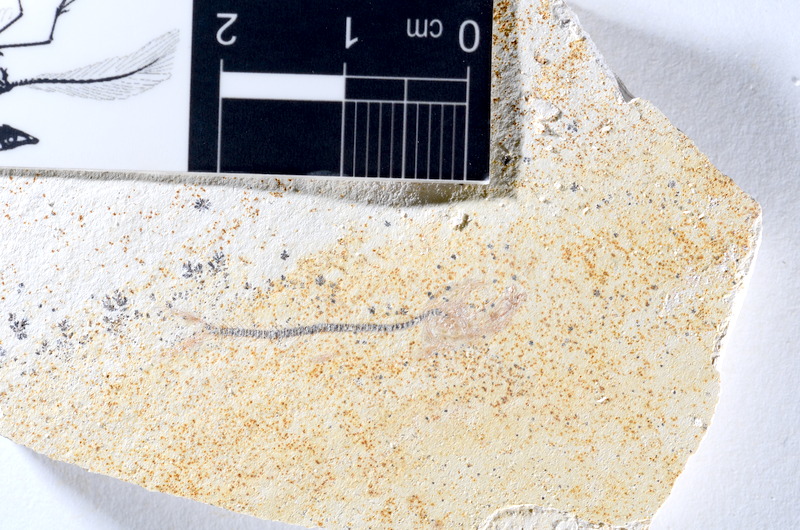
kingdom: Animalia
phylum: Chordata
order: Salmoniformes
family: Orthogonikleithridae
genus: Orthogonikleithrus
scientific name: Orthogonikleithrus hoelli
